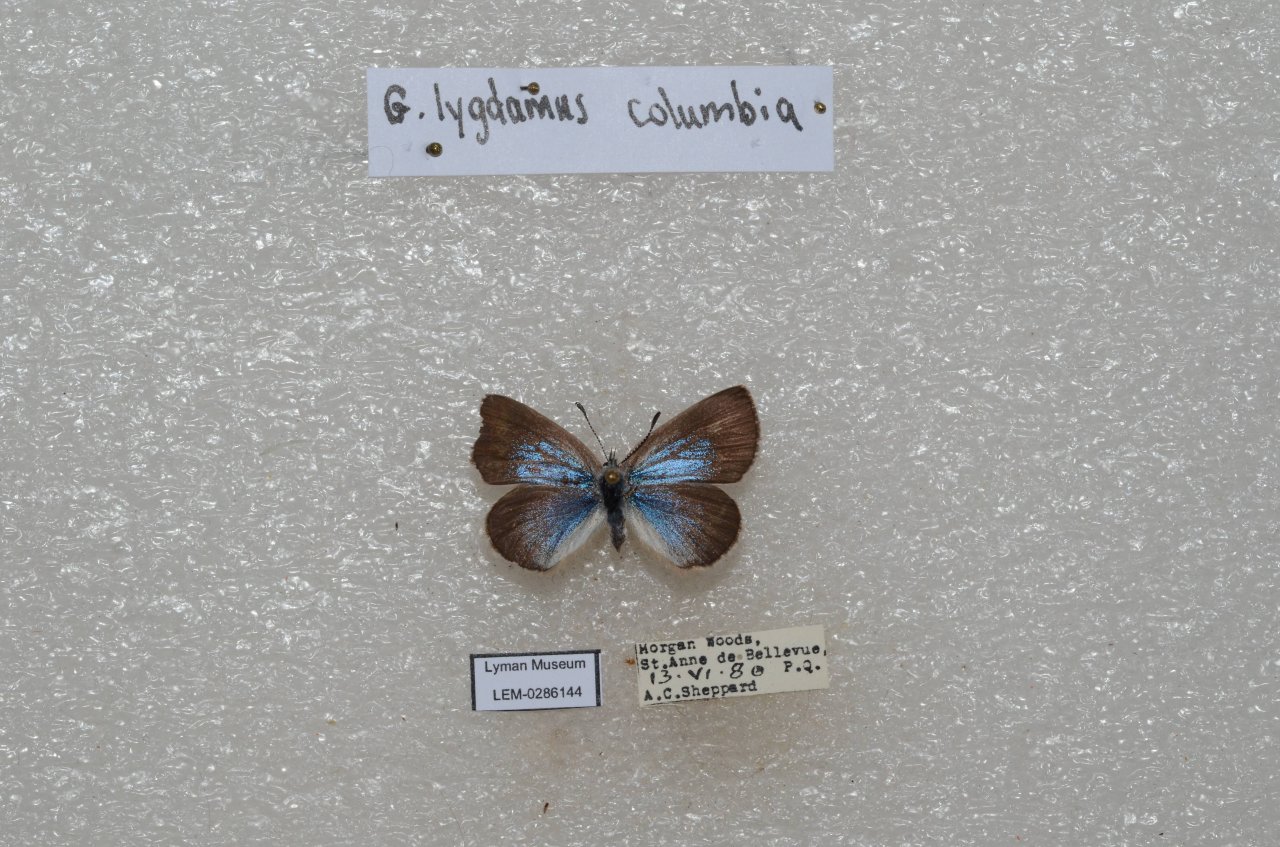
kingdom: Animalia
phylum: Arthropoda
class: Insecta
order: Lepidoptera
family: Lycaenidae
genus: Glaucopsyche
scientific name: Glaucopsyche lygdamus
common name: Silvery Blue
